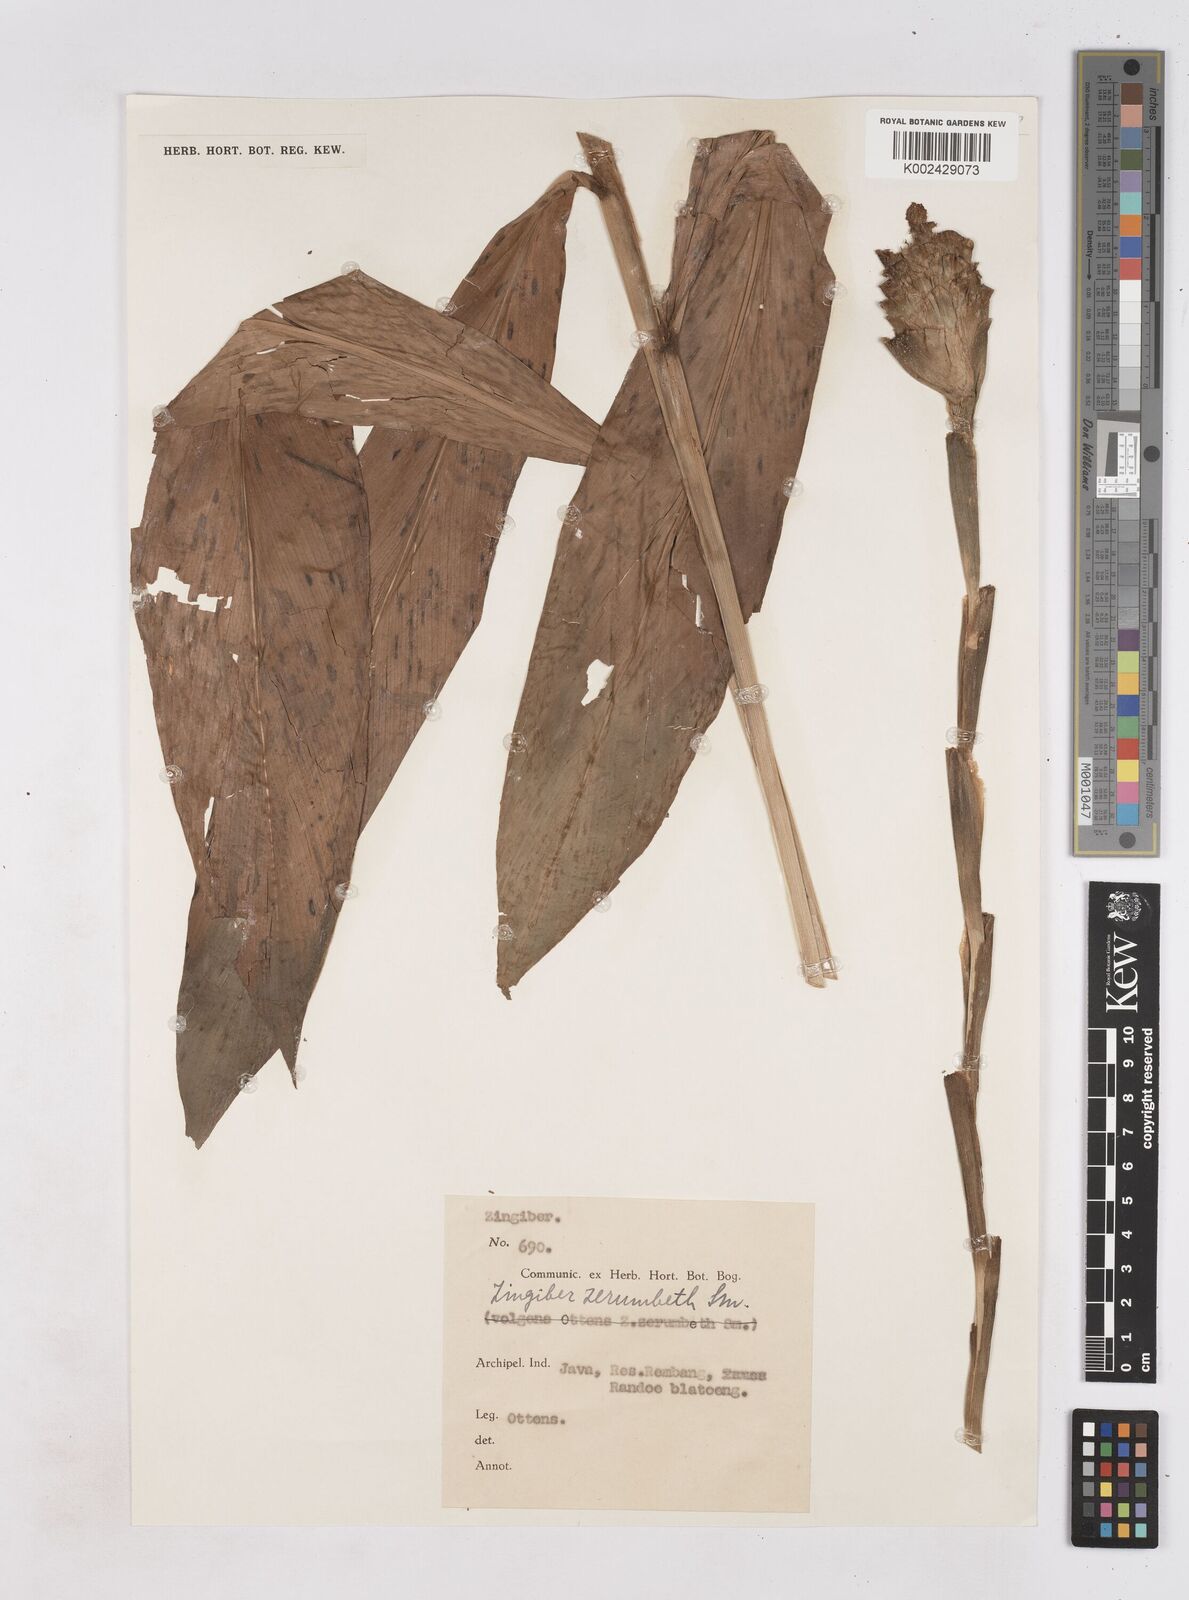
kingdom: Plantae
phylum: Tracheophyta
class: Liliopsida
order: Zingiberales
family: Zingiberaceae
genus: Zingiber
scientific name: Zingiber zerumbet
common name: Bitter ginger
